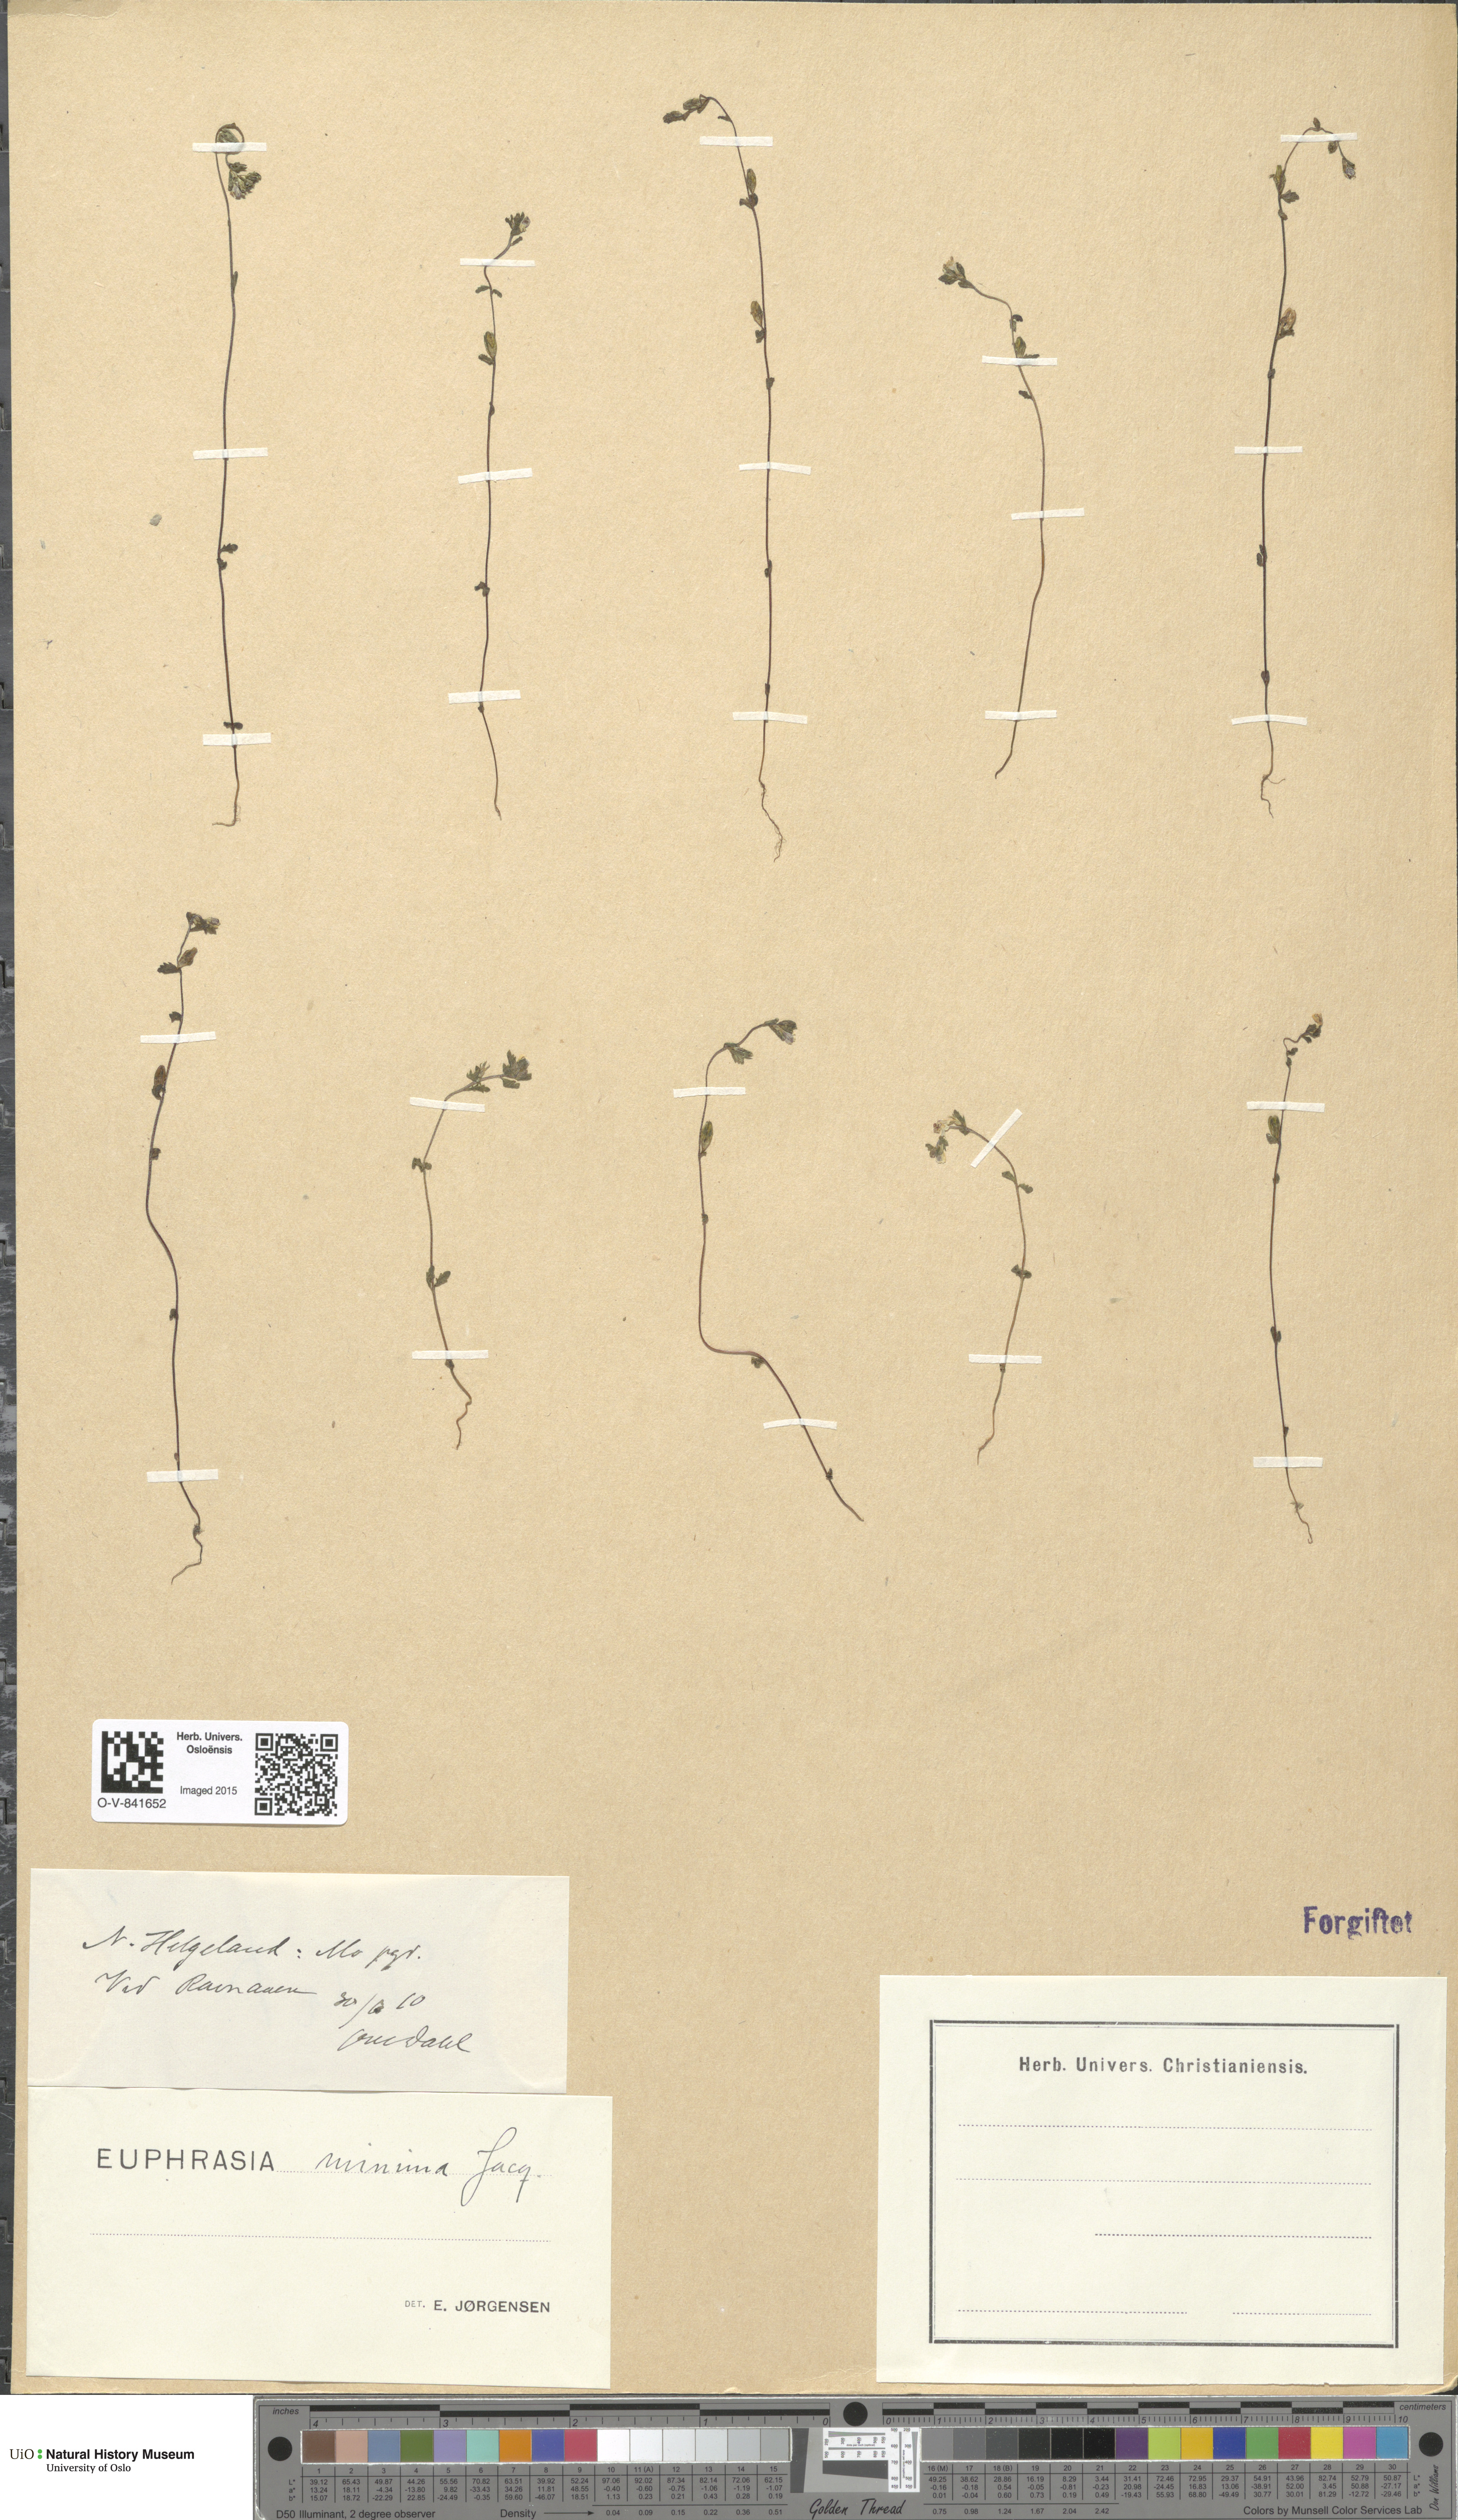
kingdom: Plantae
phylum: Tracheophyta
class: Magnoliopsida
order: Lamiales
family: Orobanchaceae
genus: Euphrasia
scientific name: Euphrasia wettsteinii
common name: Wettstein's eyebright
